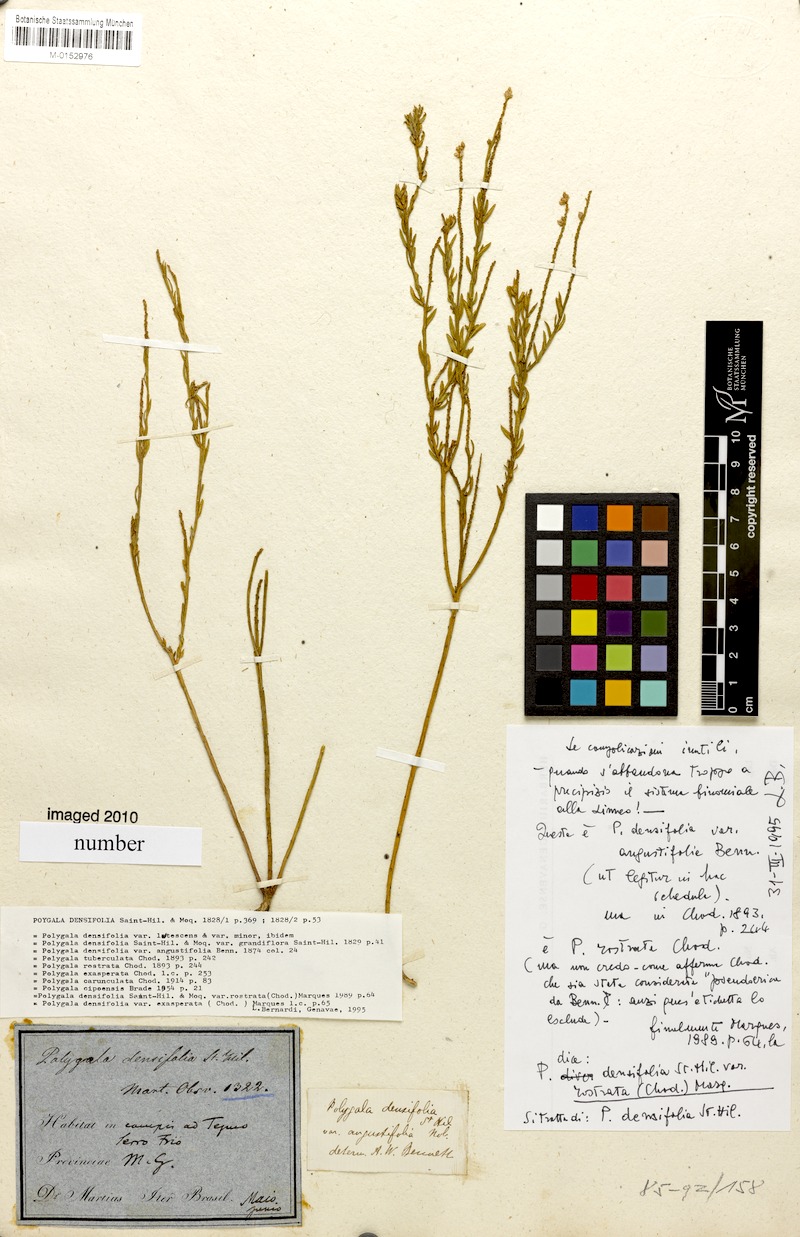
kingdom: Plantae
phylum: Tracheophyta
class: Magnoliopsida
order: Fabales
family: Polygalaceae
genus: Polygala
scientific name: Polygala densifolia
